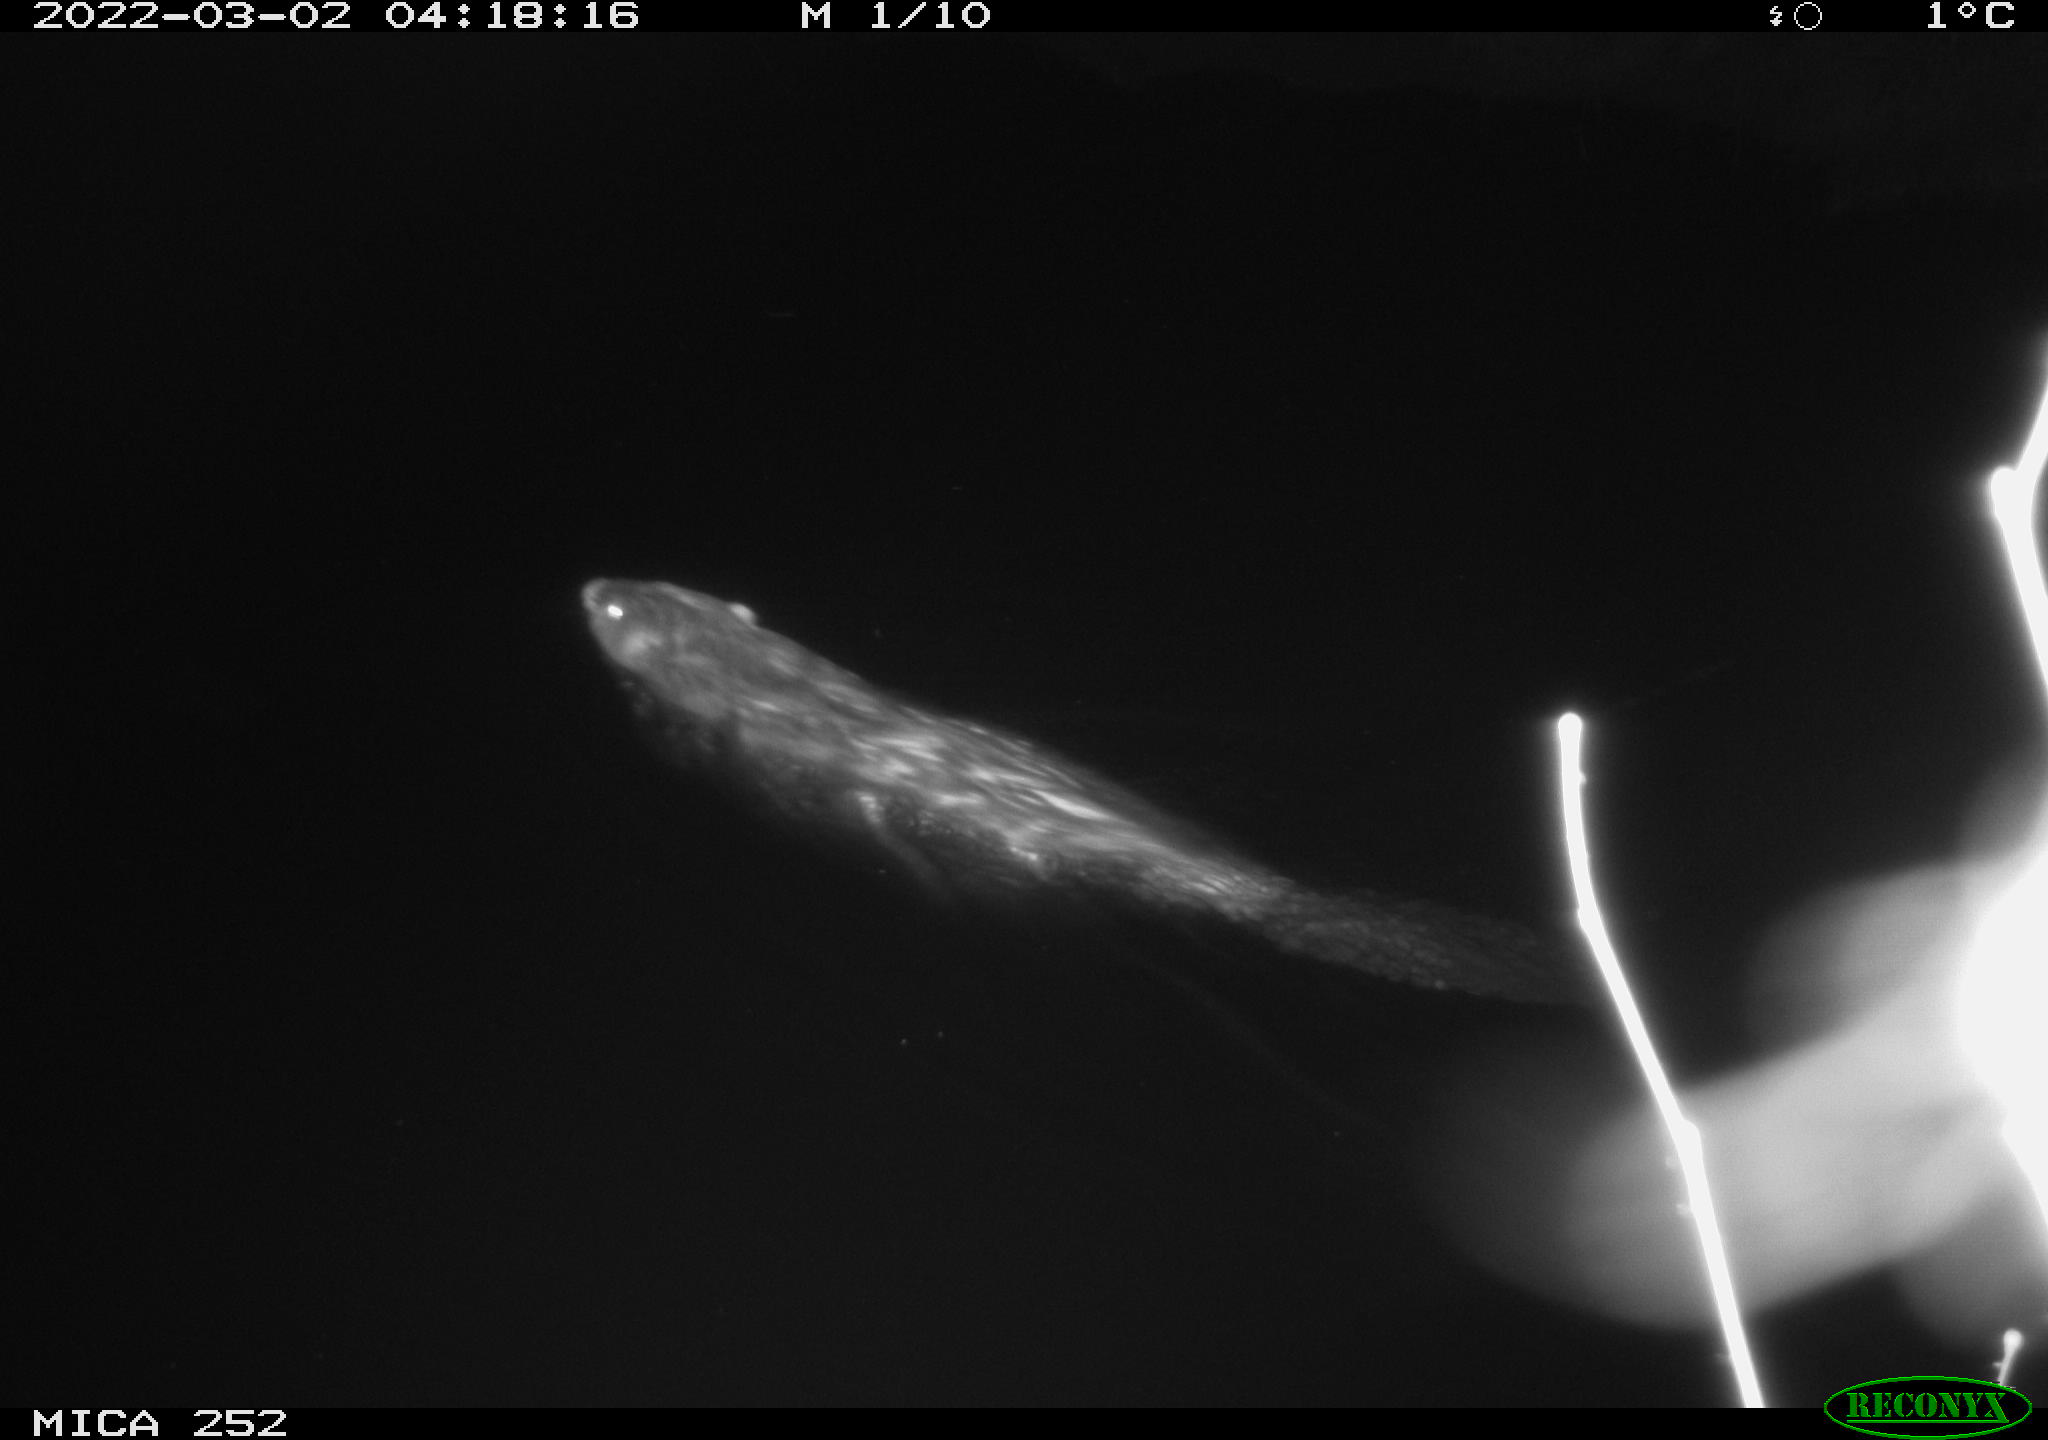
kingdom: Animalia
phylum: Chordata
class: Mammalia
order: Rodentia
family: Castoridae
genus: Castor
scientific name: Castor fiber
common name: Eurasian beaver
